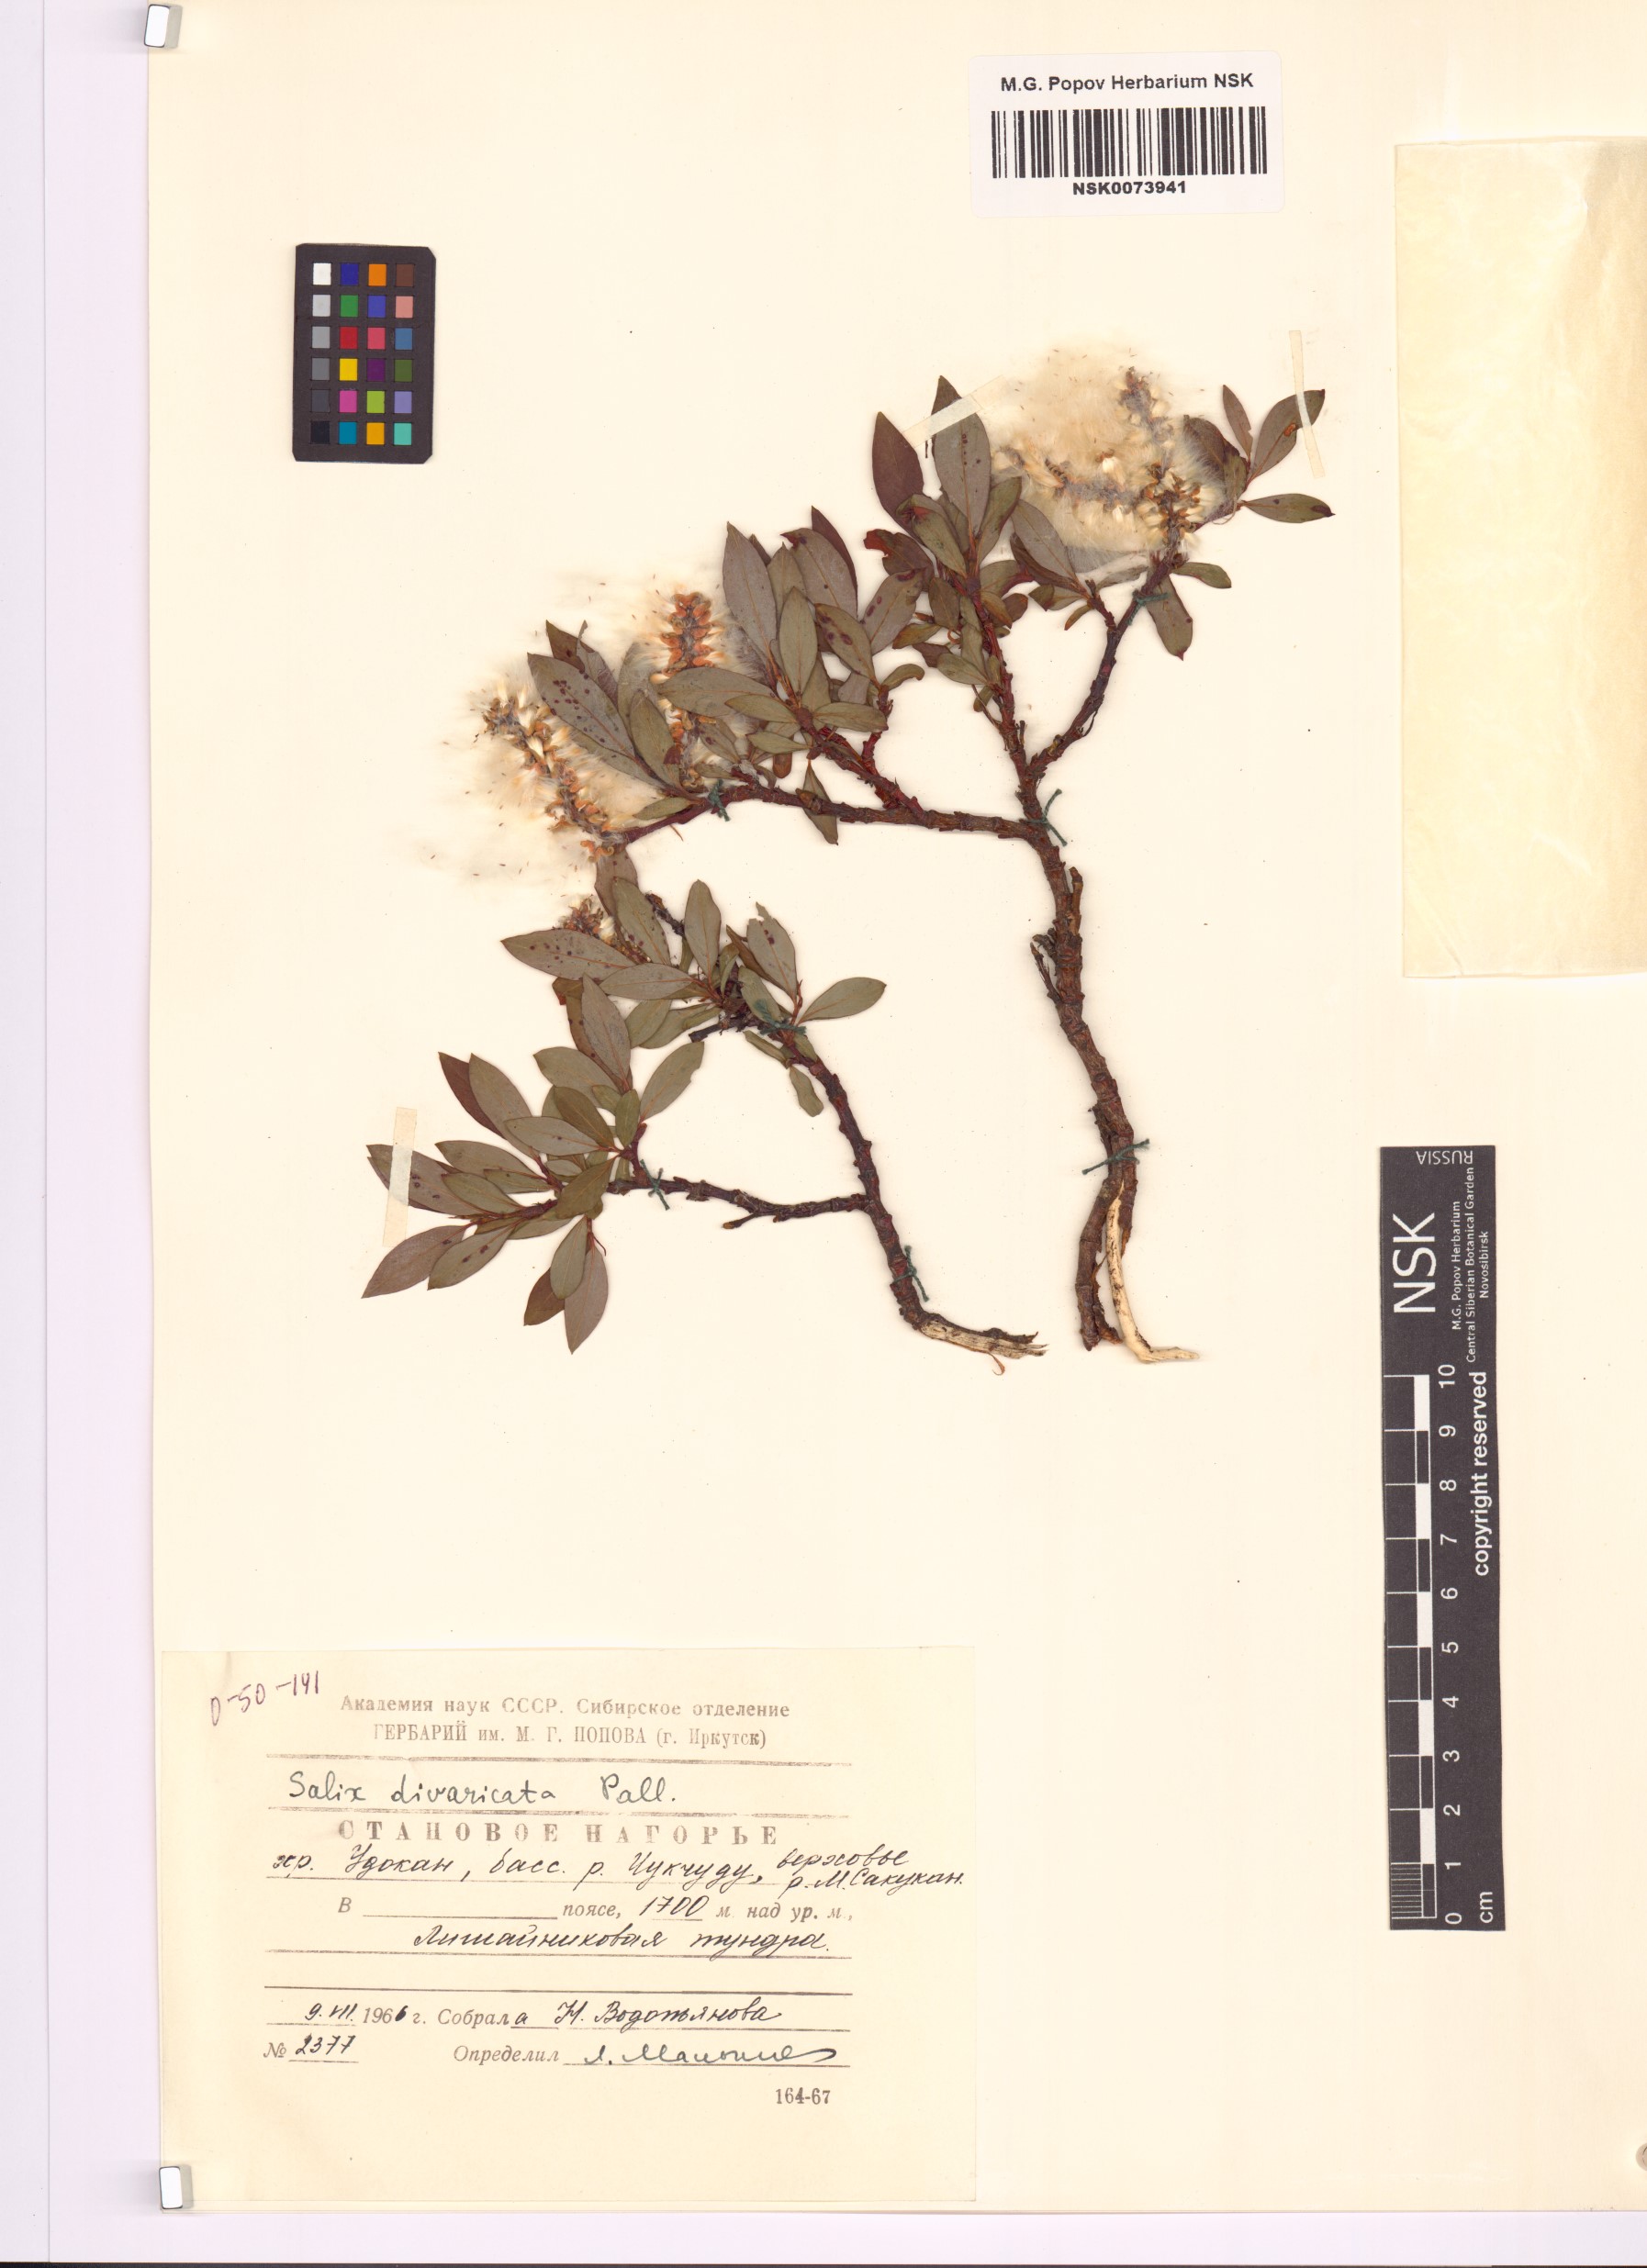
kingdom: Plantae
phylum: Tracheophyta
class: Magnoliopsida
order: Malpighiales
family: Salicaceae
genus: Salix
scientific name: Salix divaricata
